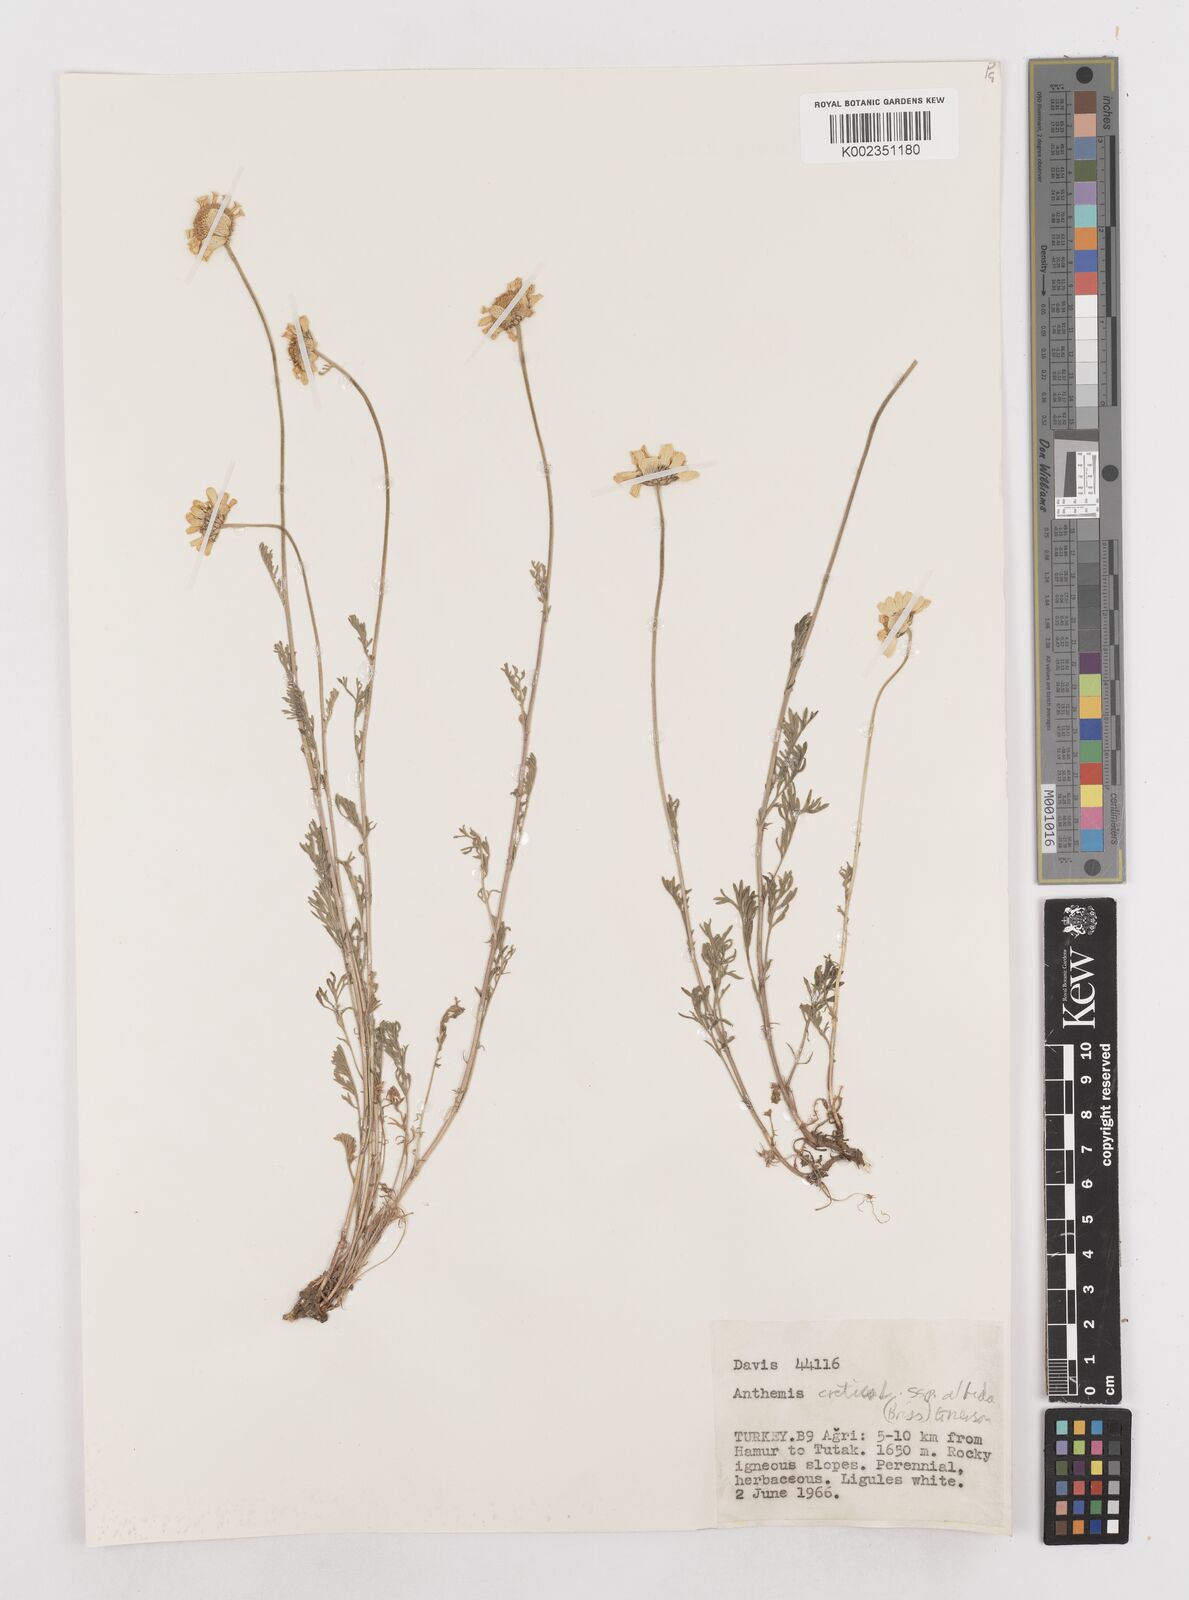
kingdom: Plantae
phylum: Tracheophyta
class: Magnoliopsida
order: Asterales
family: Asteraceae
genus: Anthemis
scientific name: Anthemis cretica
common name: Mountain dog-daisy
